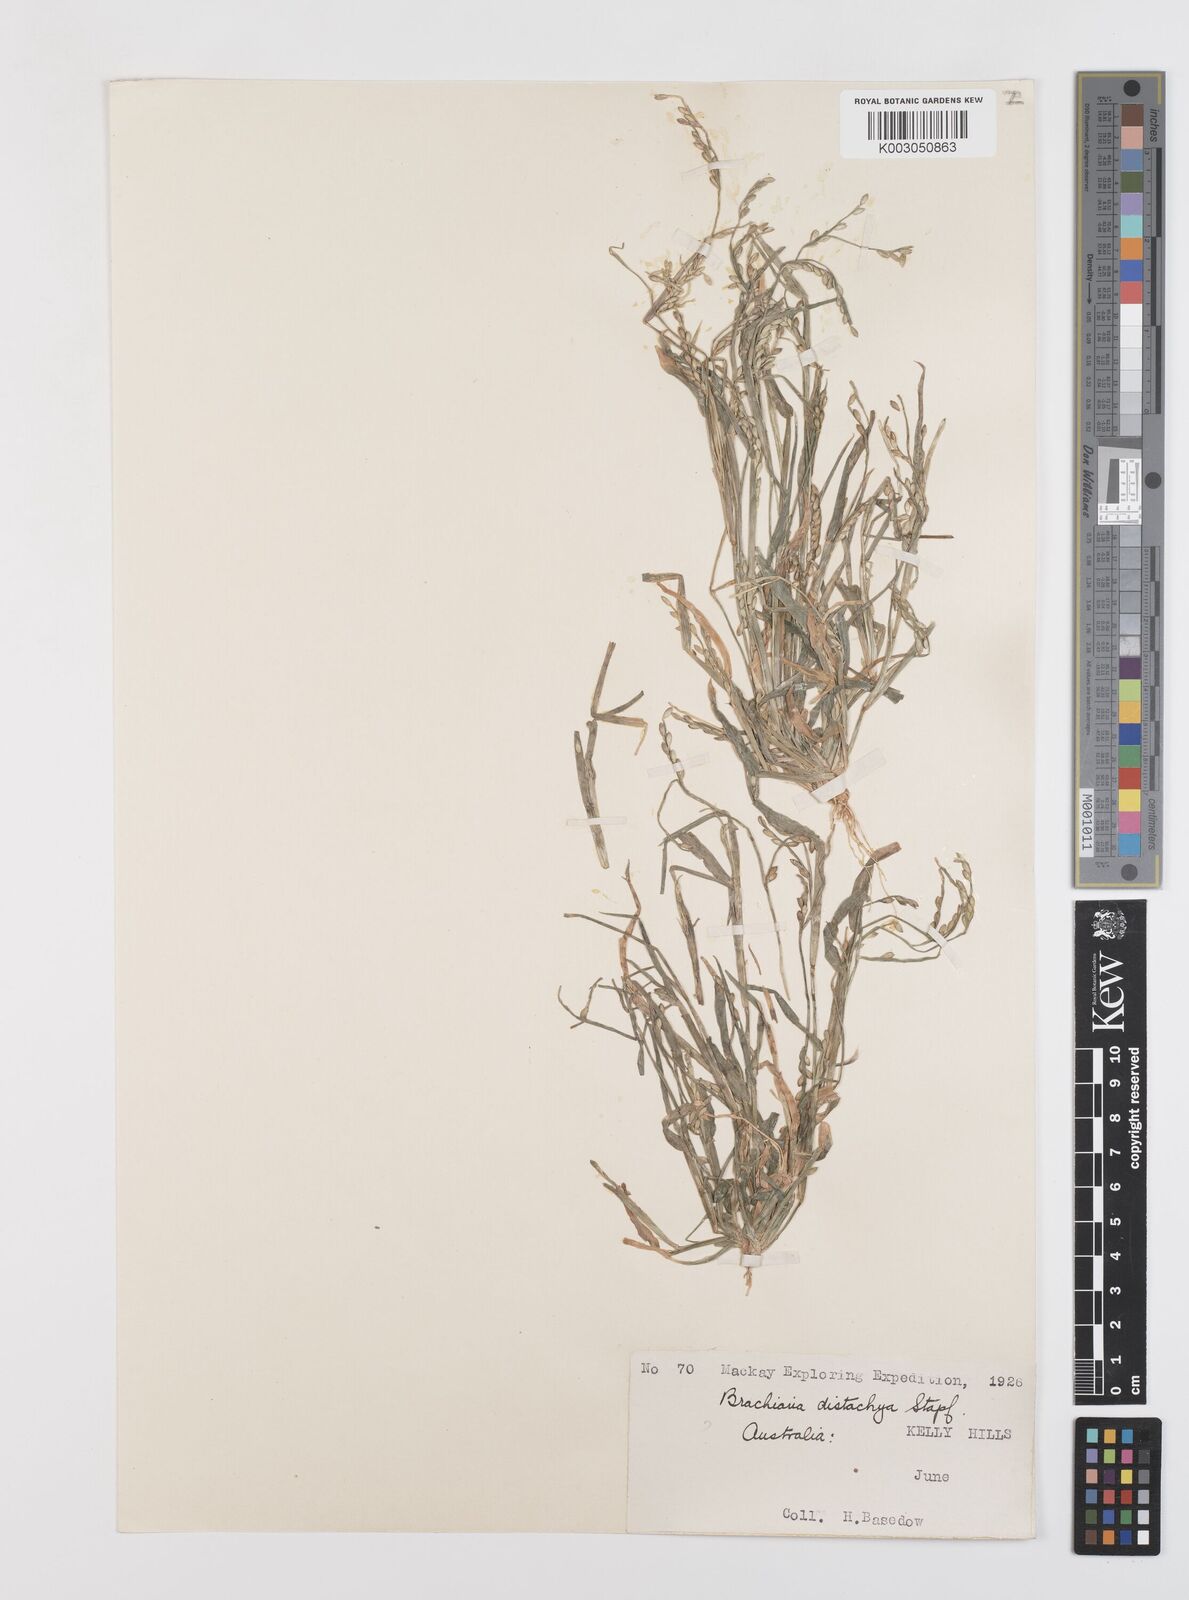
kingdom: Plantae
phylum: Tracheophyta
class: Liliopsida
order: Poales
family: Poaceae
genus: Urochloa
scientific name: Urochloa subquadripara
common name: Armgrass millet
